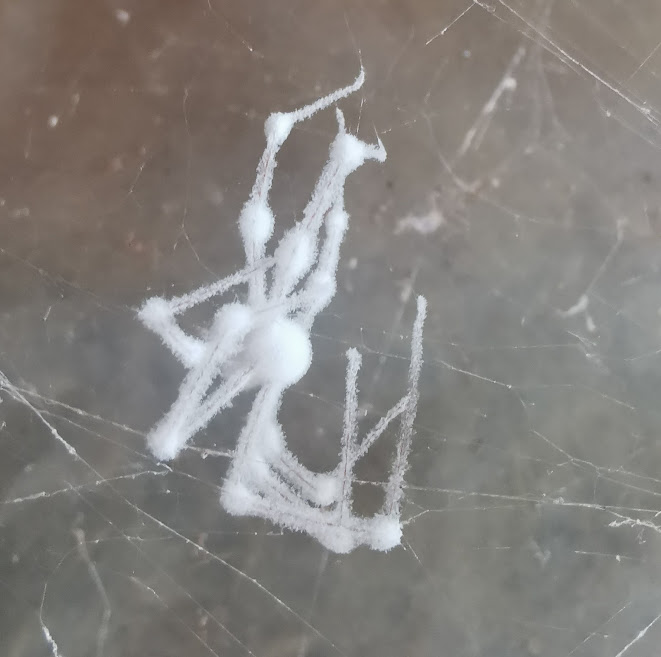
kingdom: Fungi
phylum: Ascomycota
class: Sordariomycetes
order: Hypocreales
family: Cordycipitaceae
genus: Lecanicillium
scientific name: Lecanicillium tenuipes
